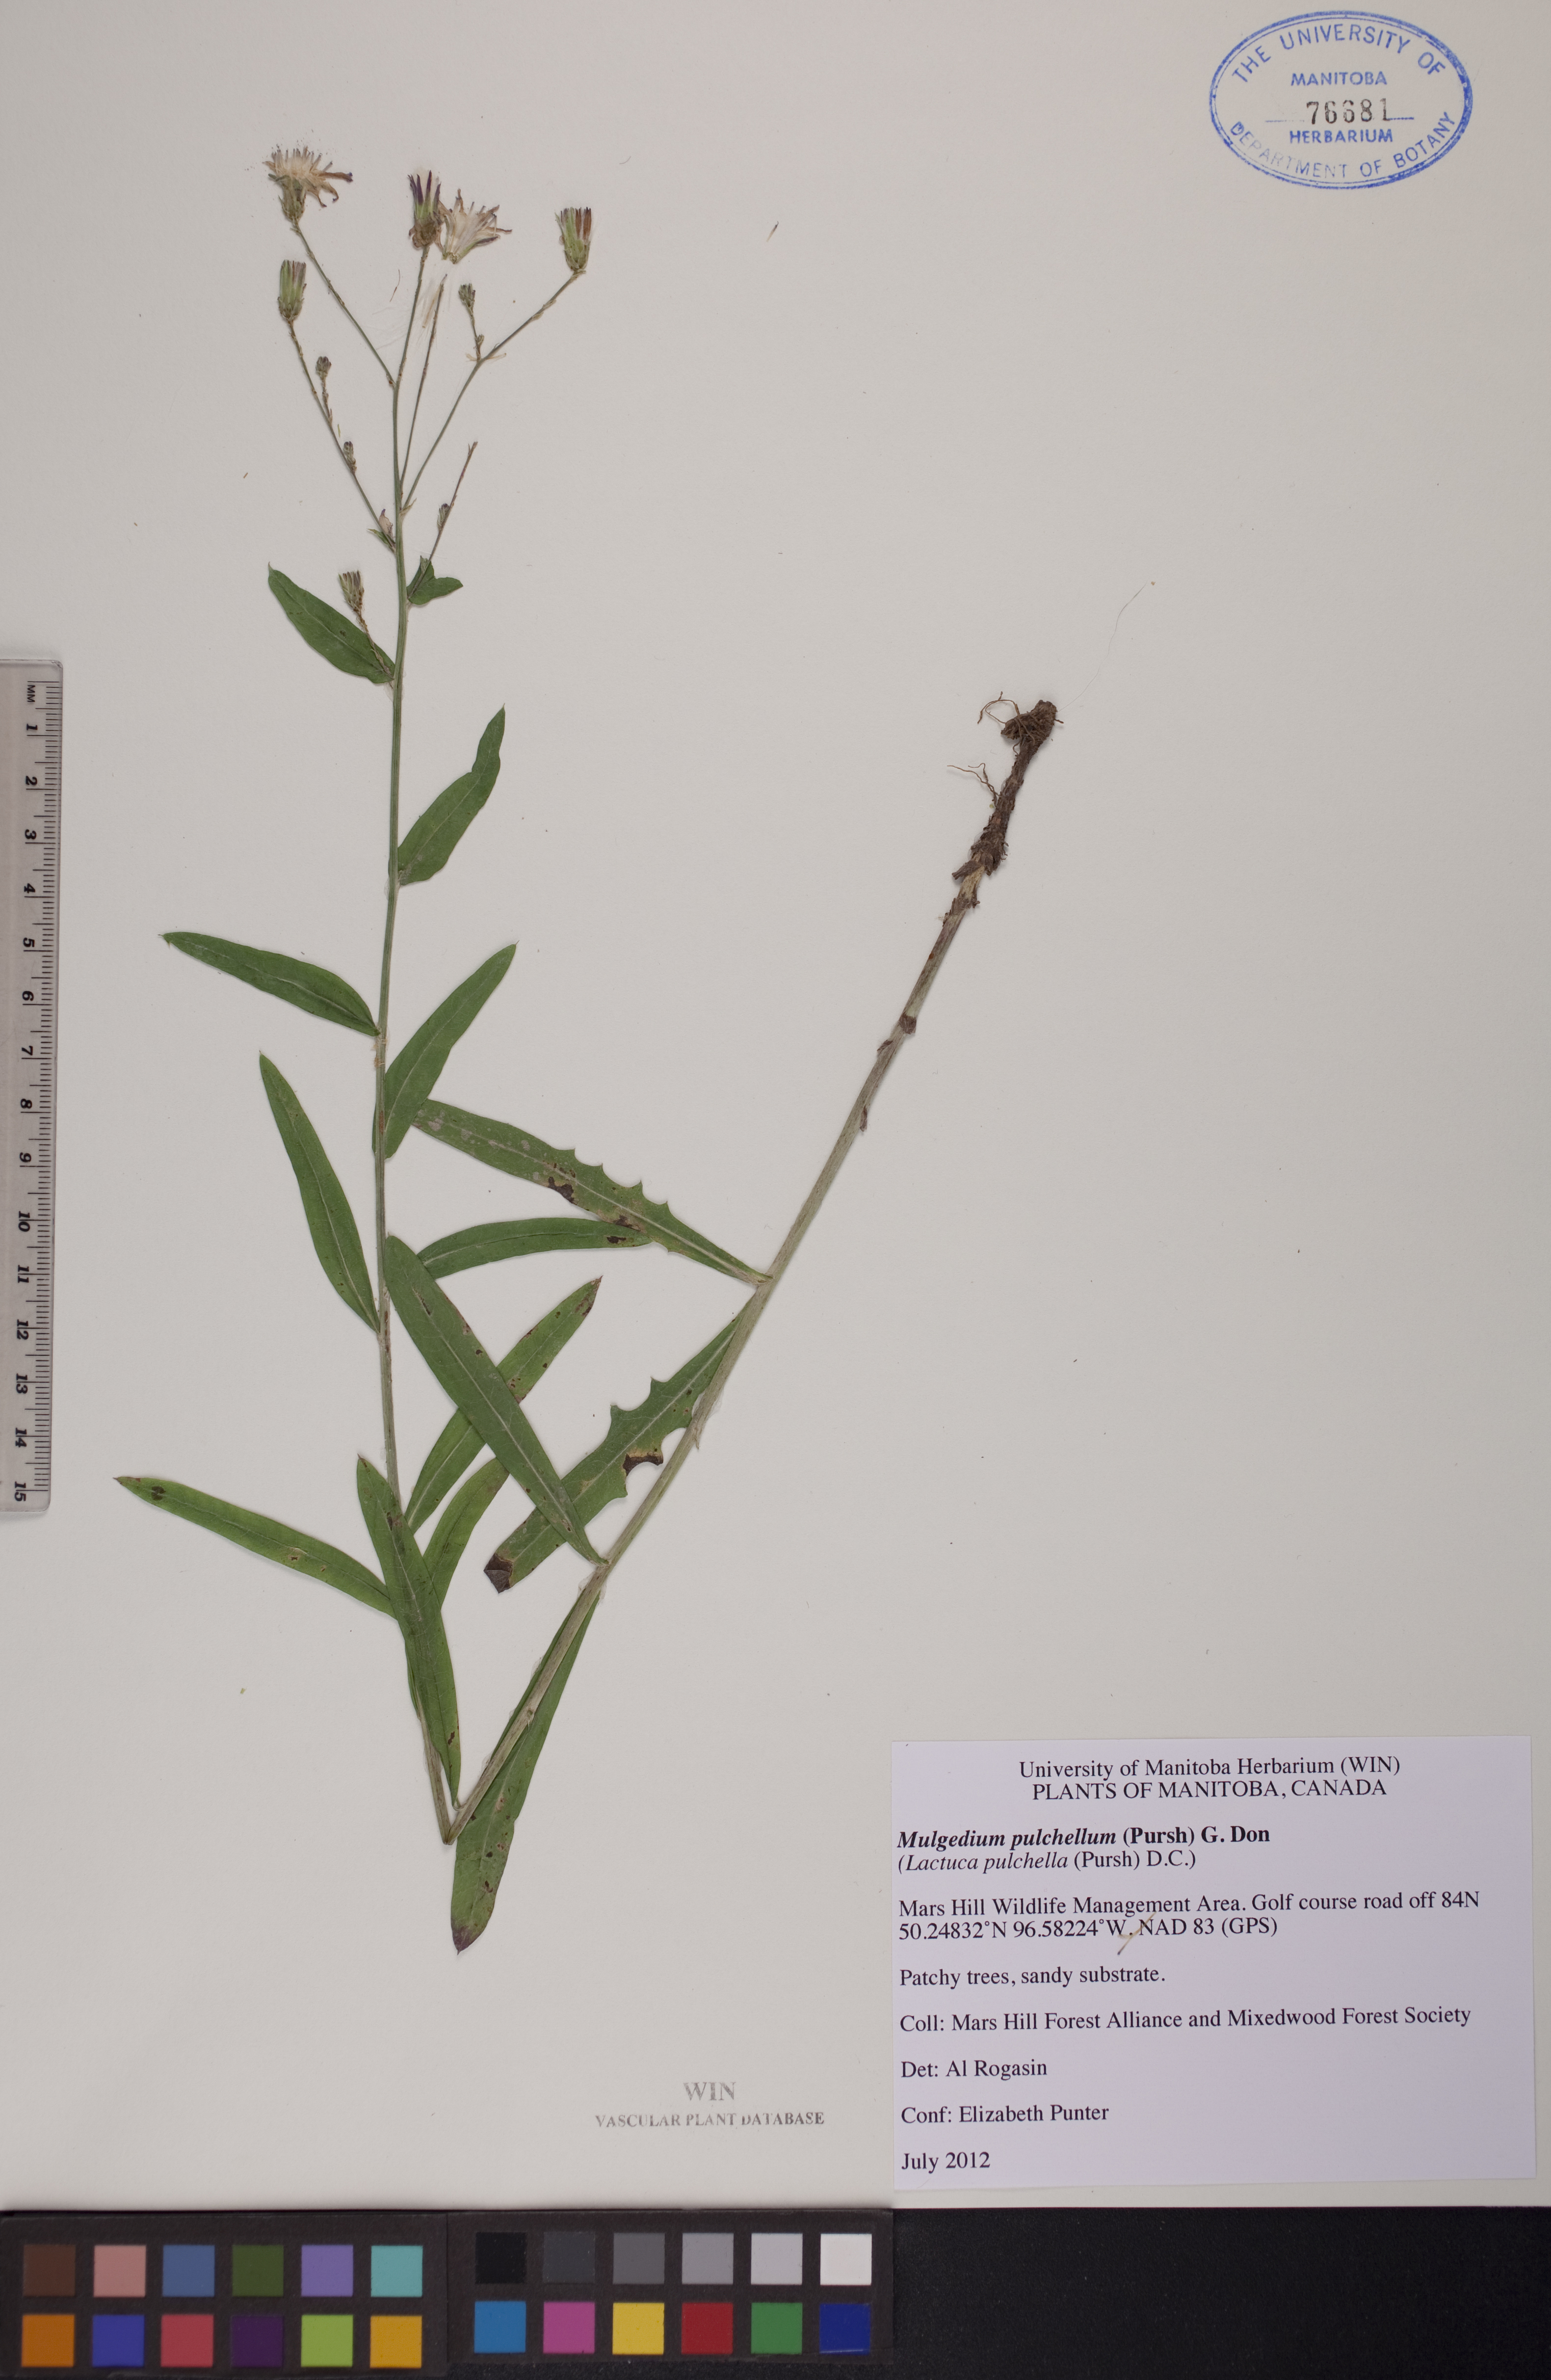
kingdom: Plantae
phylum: Tracheophyta
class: Magnoliopsida
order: Asterales
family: Asteraceae
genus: Lactuca
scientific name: Lactuca pulchella
